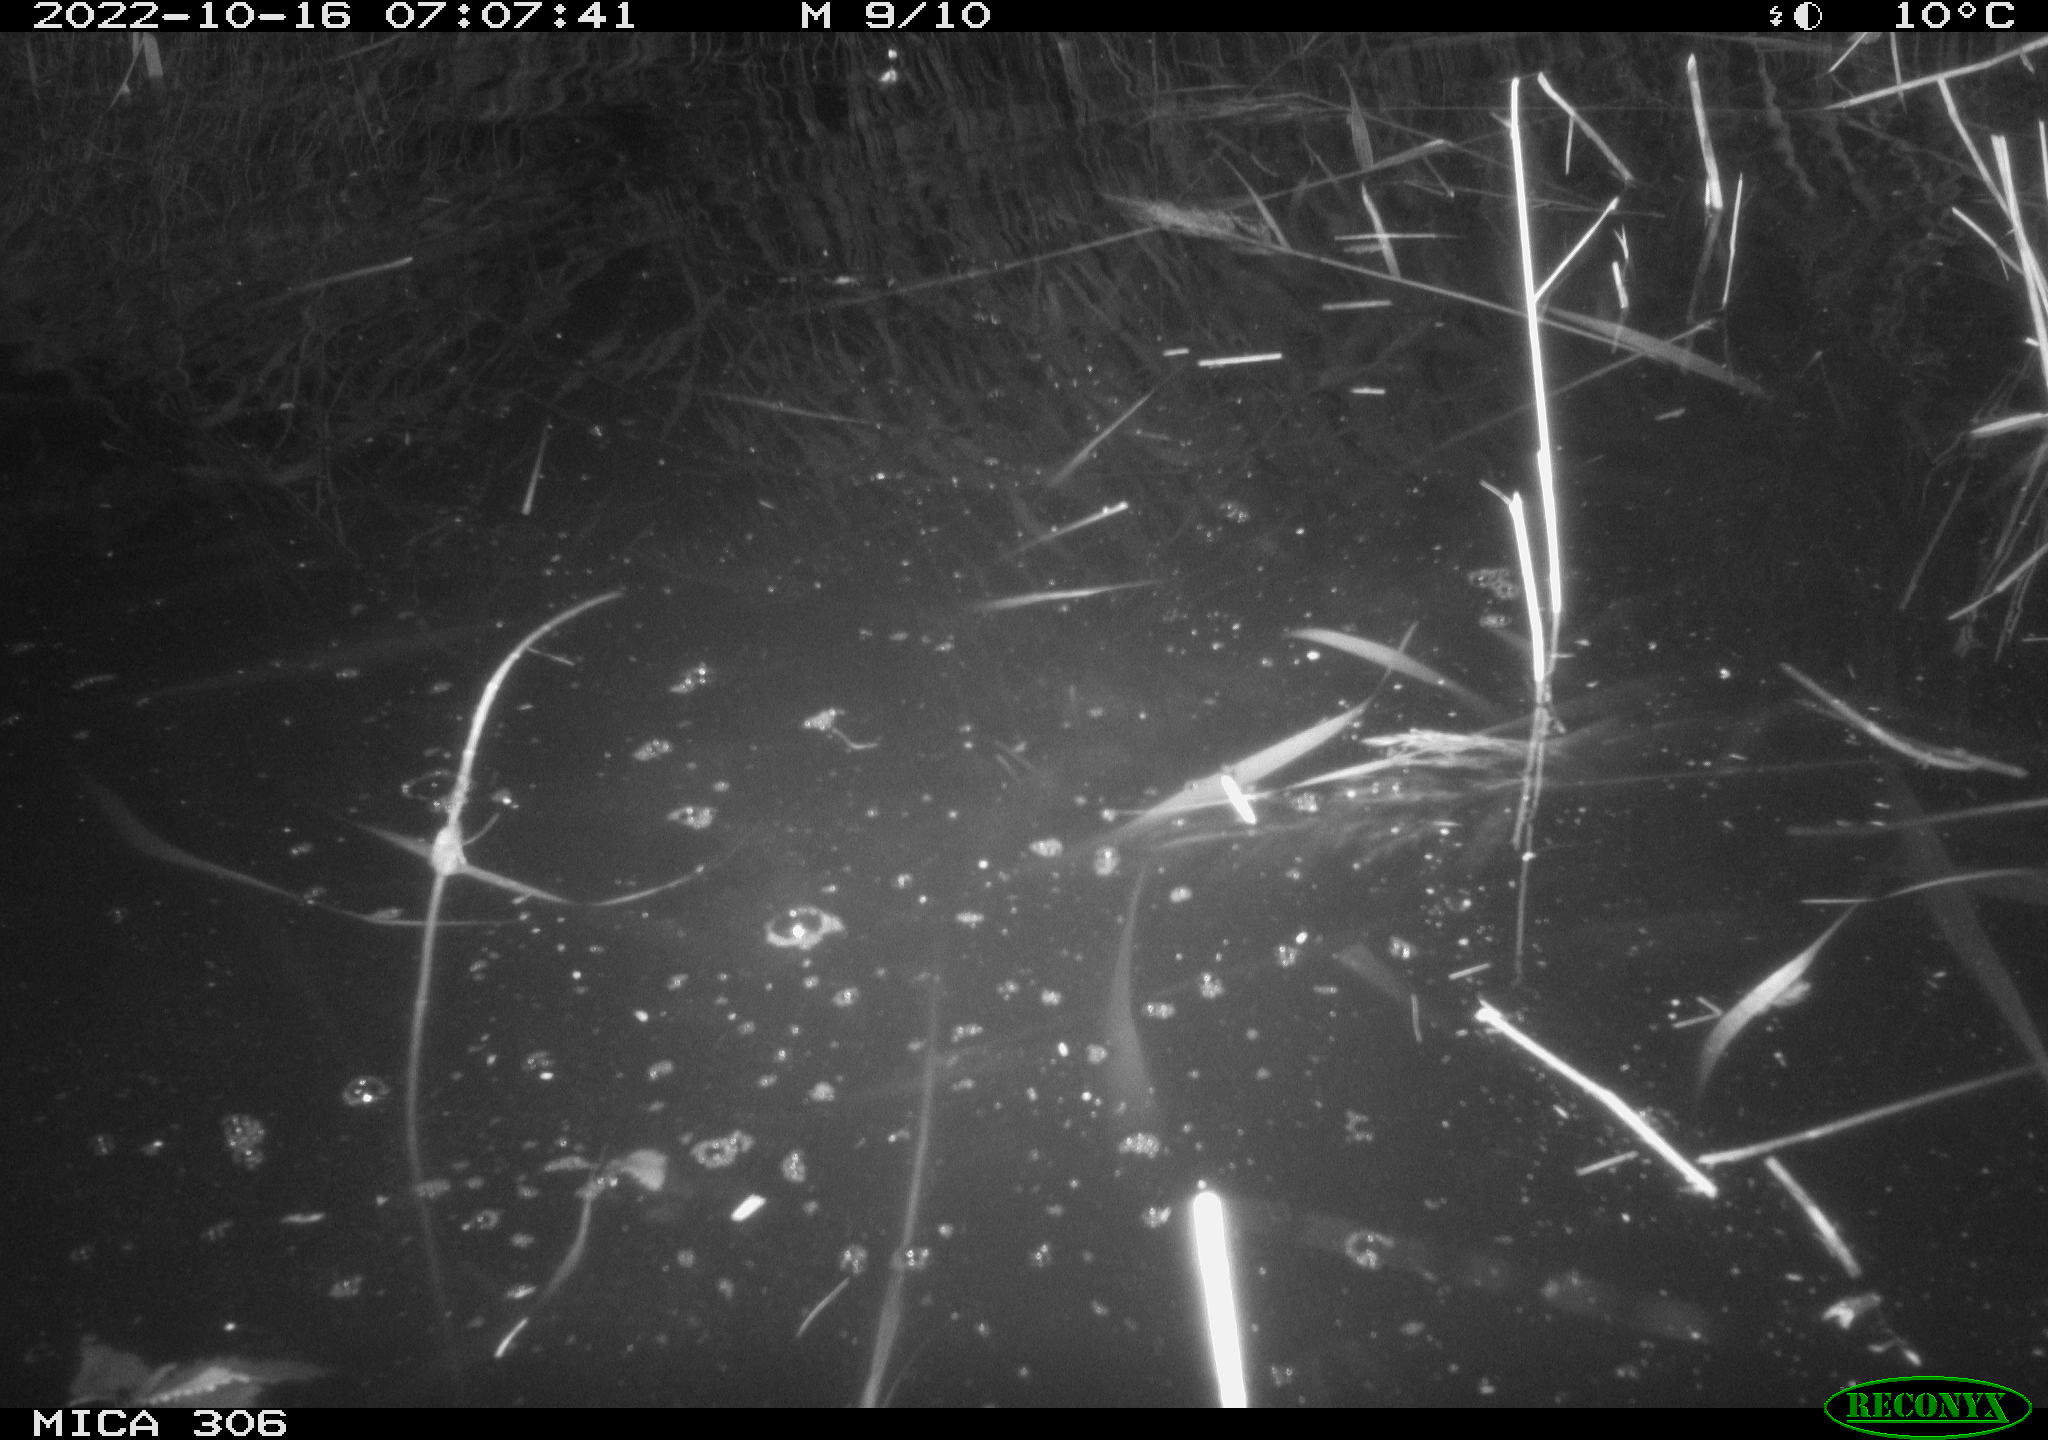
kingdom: Animalia
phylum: Chordata
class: Mammalia
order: Rodentia
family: Muridae
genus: Rattus
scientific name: Rattus norvegicus
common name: Brown rat
